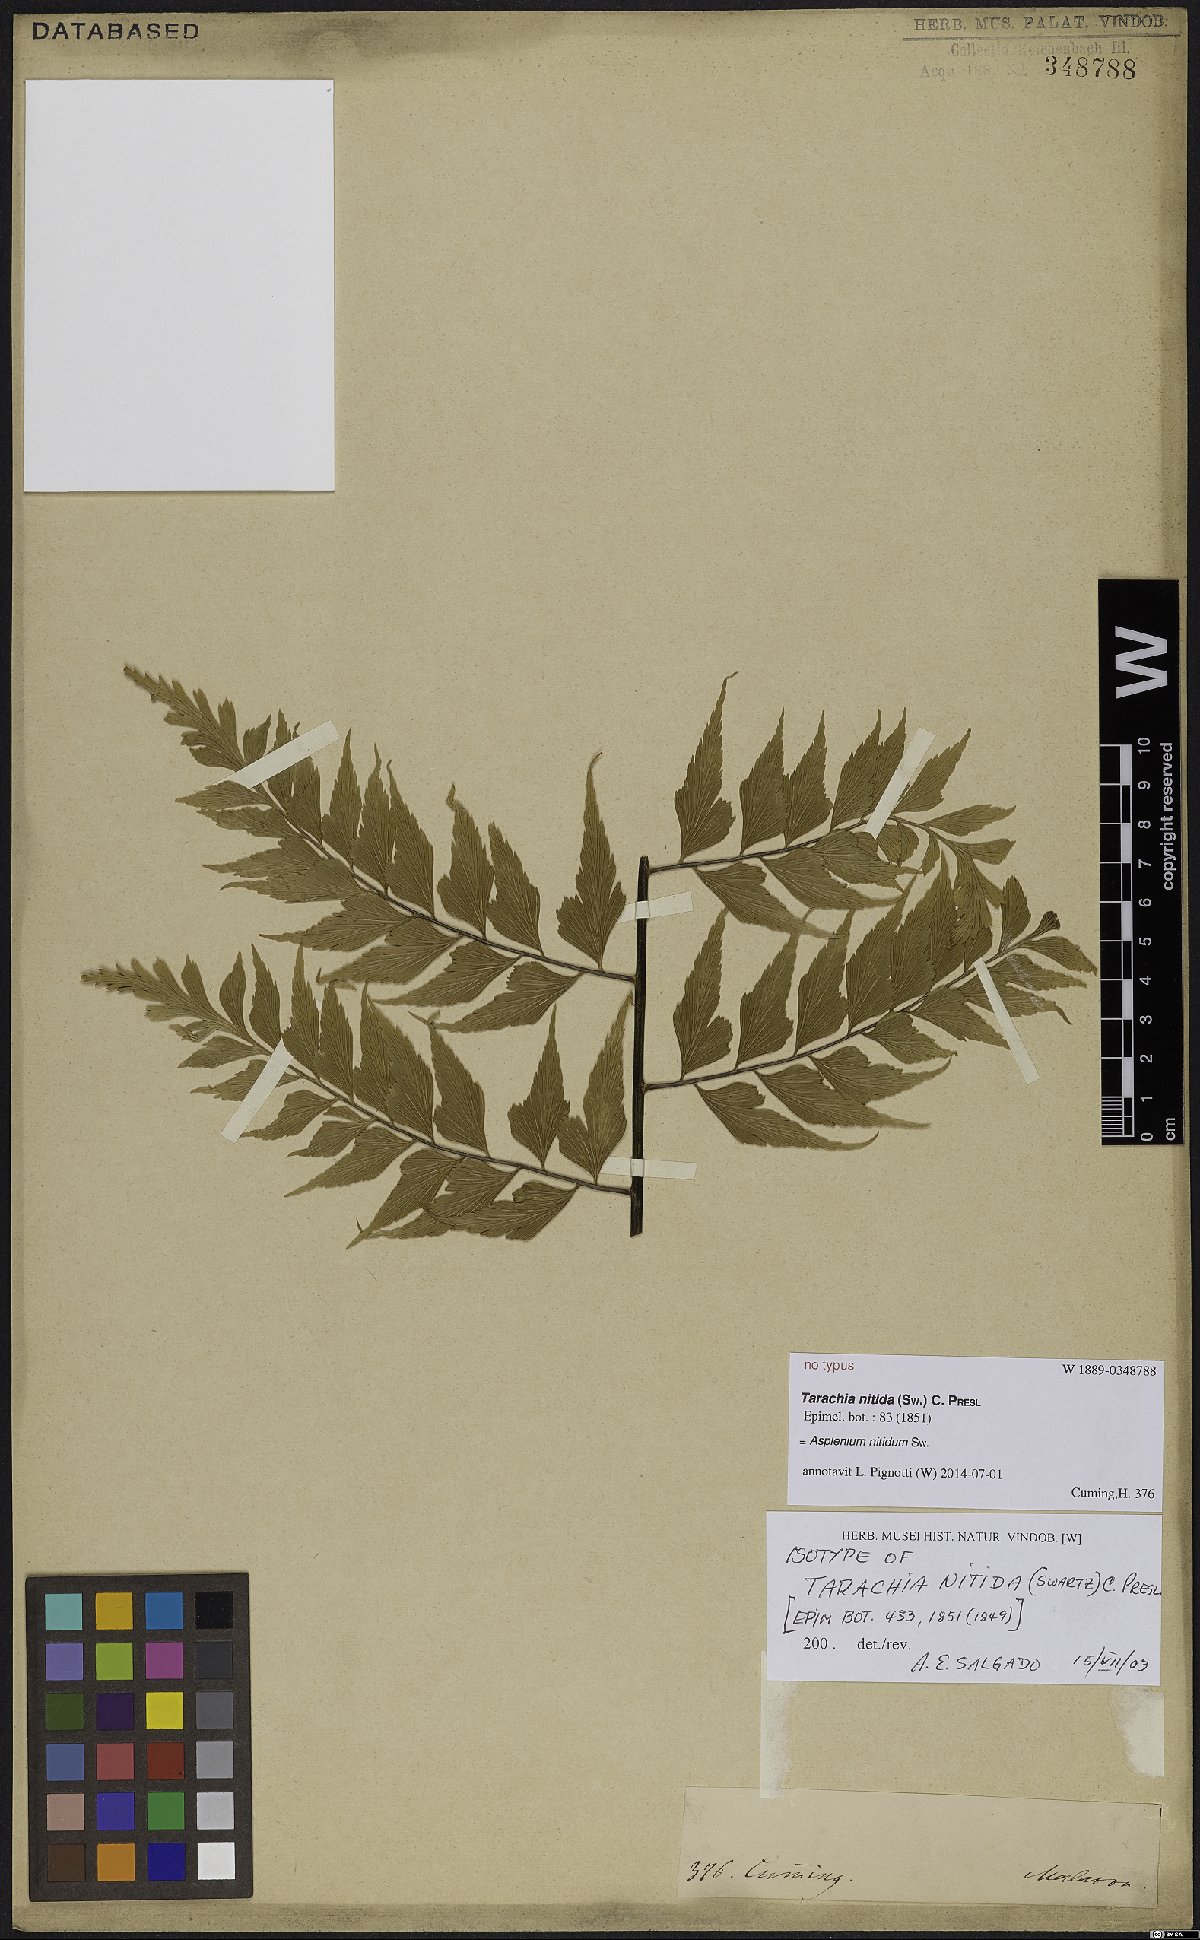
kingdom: Plantae
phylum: Tracheophyta
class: Polypodiopsida
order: Polypodiales
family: Aspleniaceae
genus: Asplenium
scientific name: Asplenium nitidum
